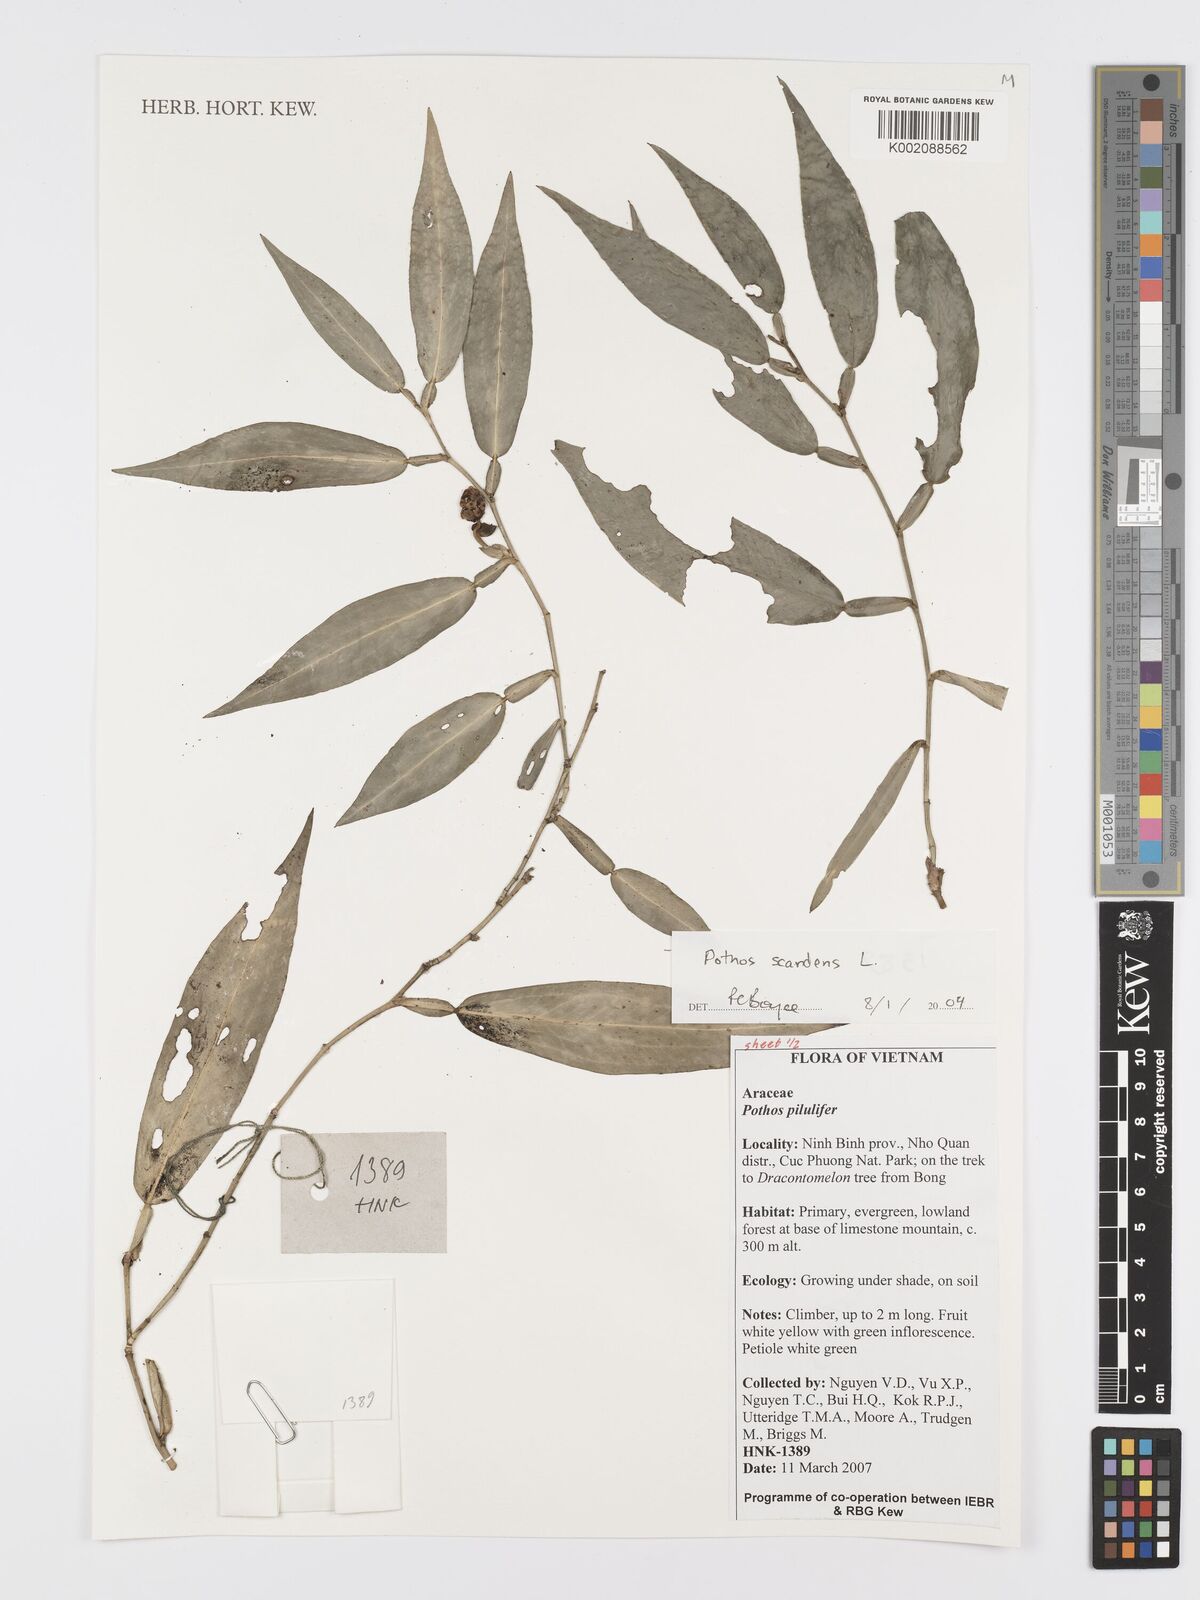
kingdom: Plantae
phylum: Tracheophyta
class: Liliopsida
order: Alismatales
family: Araceae
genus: Pothos
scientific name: Pothos scandens
